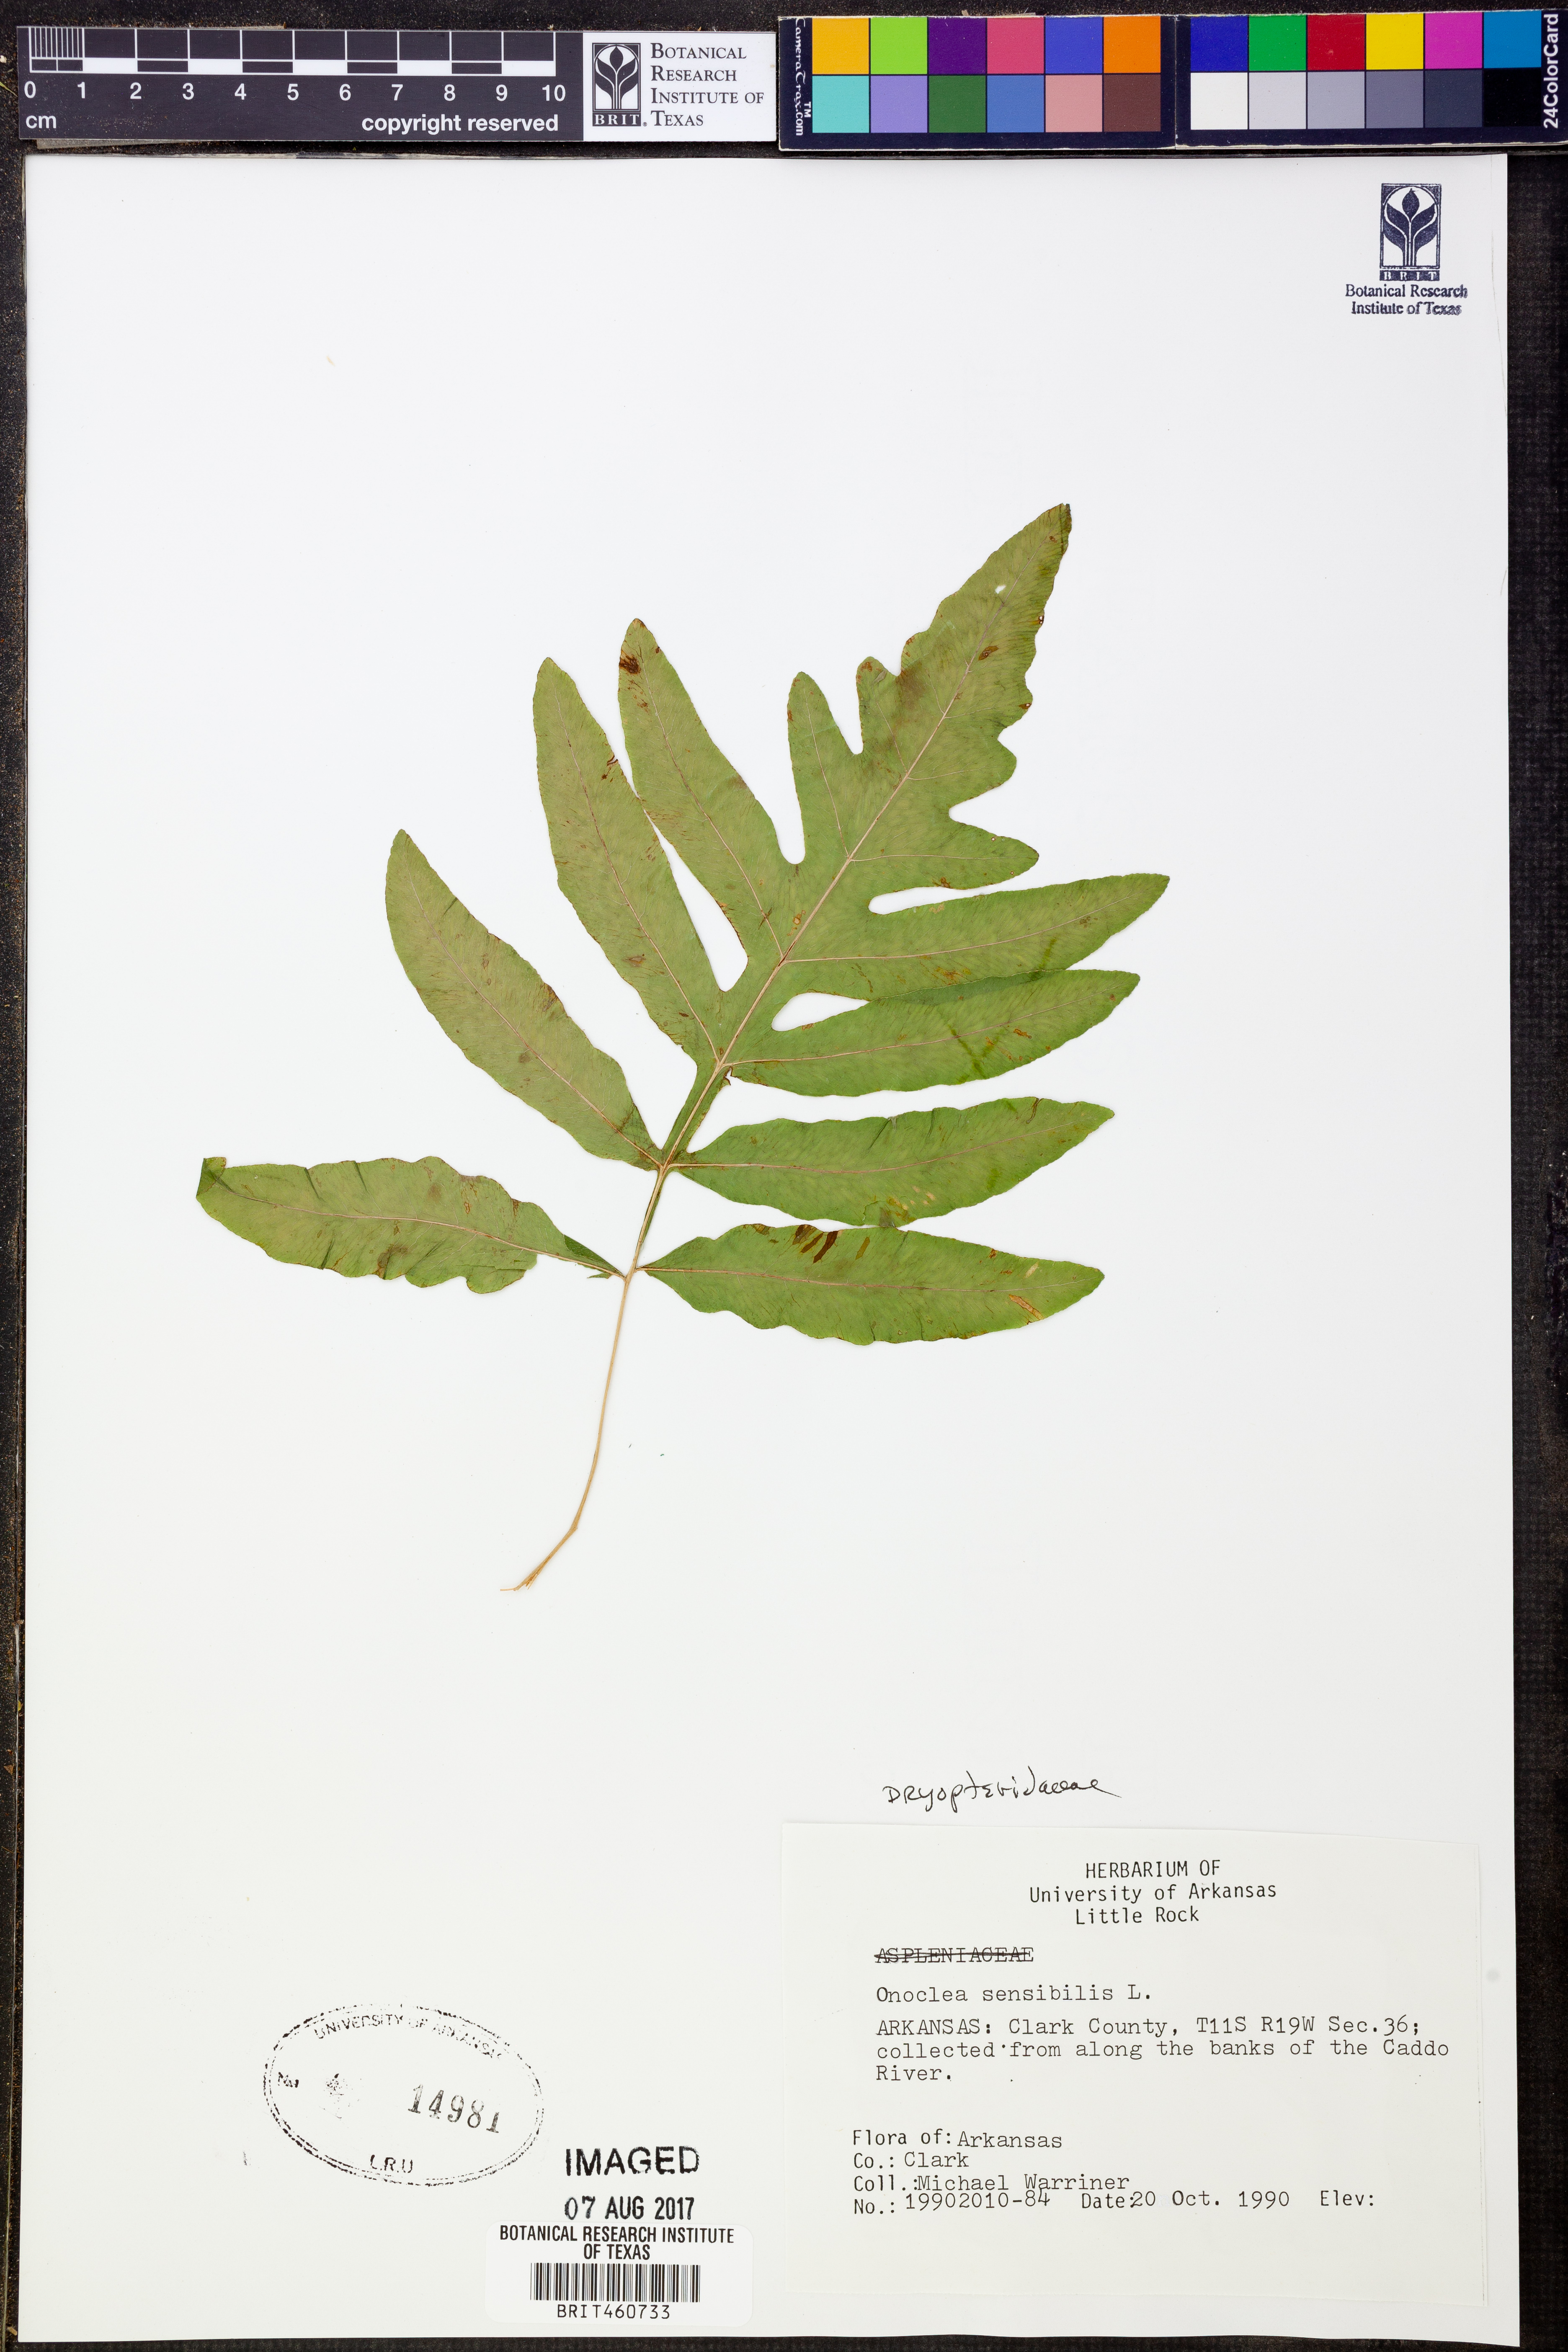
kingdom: Plantae
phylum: Tracheophyta
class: Polypodiopsida
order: Polypodiales
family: Onocleaceae
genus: Onoclea
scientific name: Onoclea sensibilis
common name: Sensitive fern
